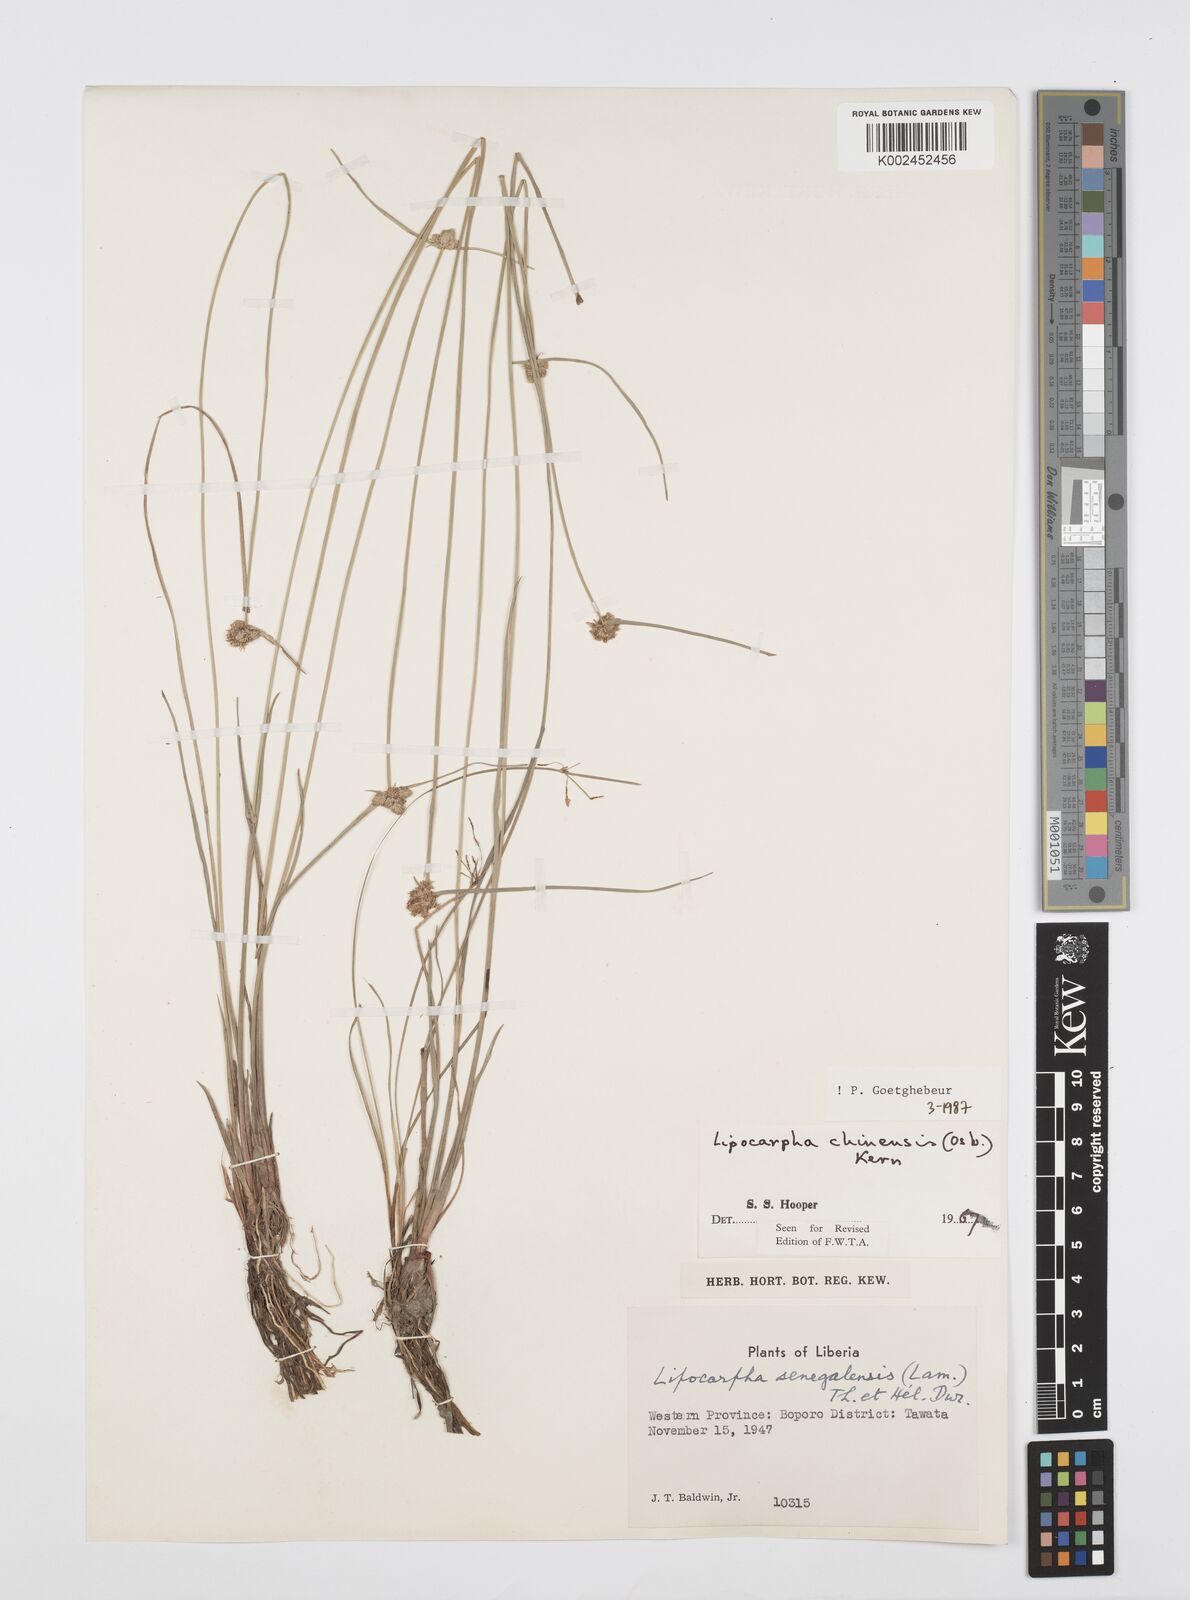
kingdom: Plantae
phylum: Tracheophyta
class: Liliopsida
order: Poales
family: Cyperaceae
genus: Cyperus
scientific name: Cyperus albescens
